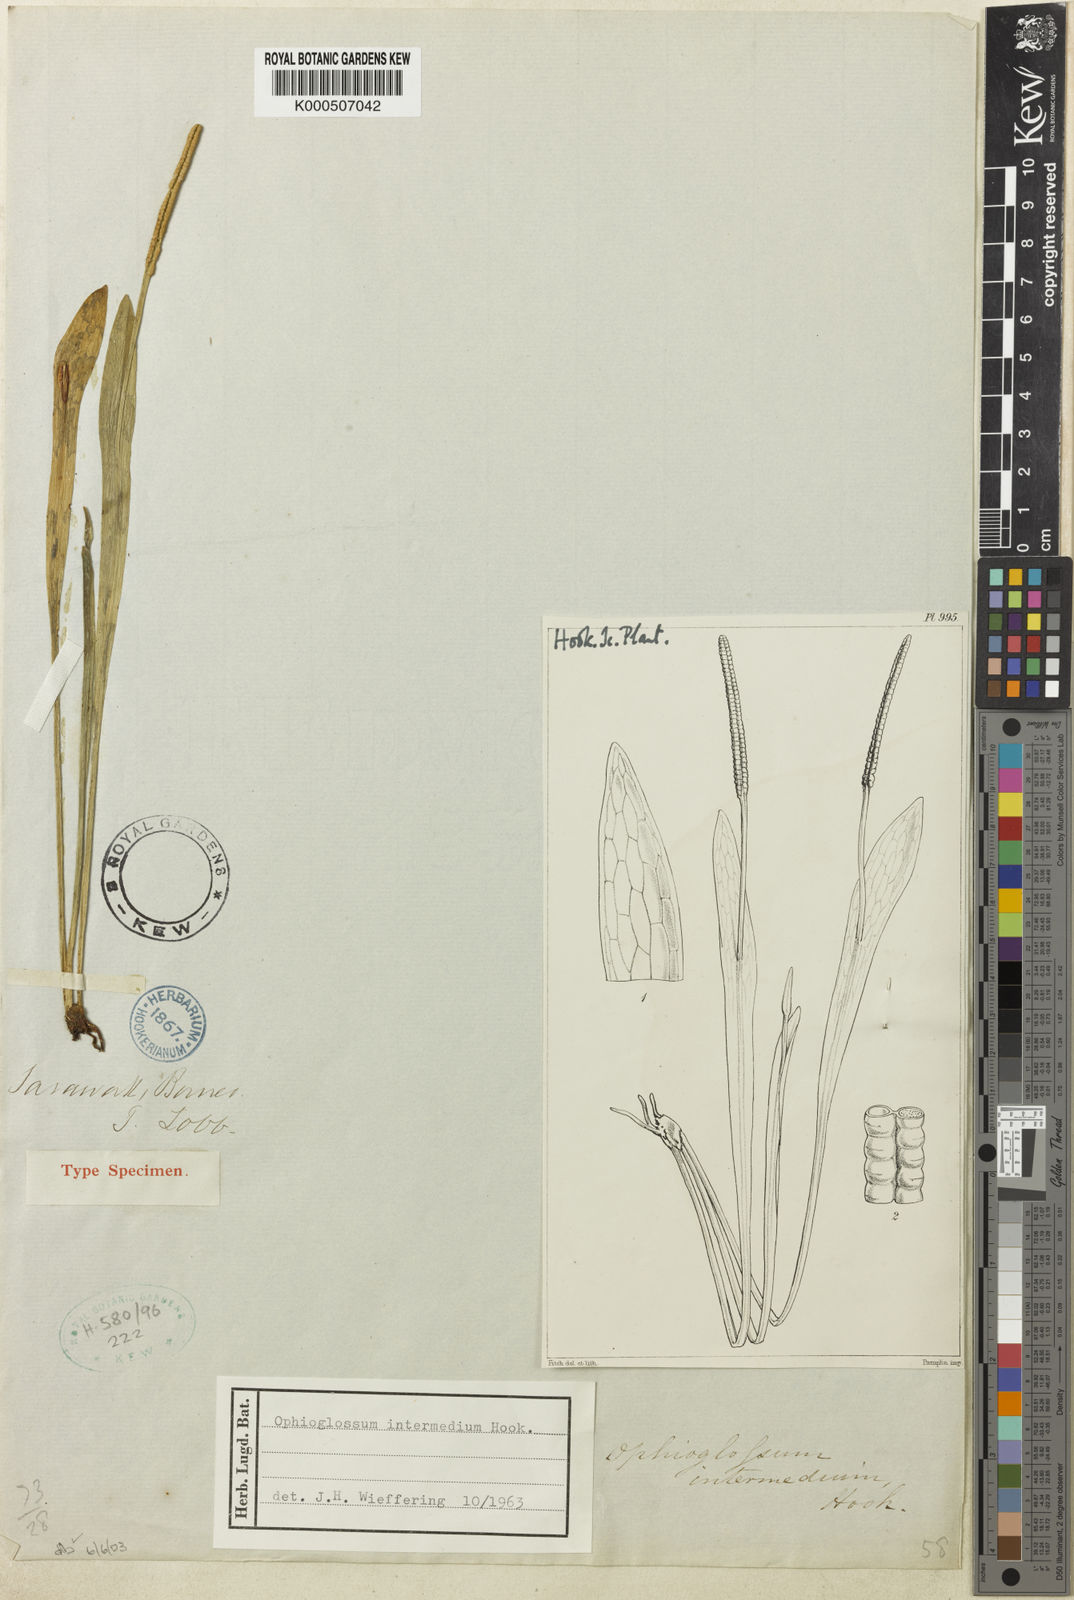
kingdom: Plantae
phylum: Tracheophyta
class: Polypodiopsida
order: Ophioglossales
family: Ophioglossaceae
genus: Ophioderma
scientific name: Ophioderma intermedium
